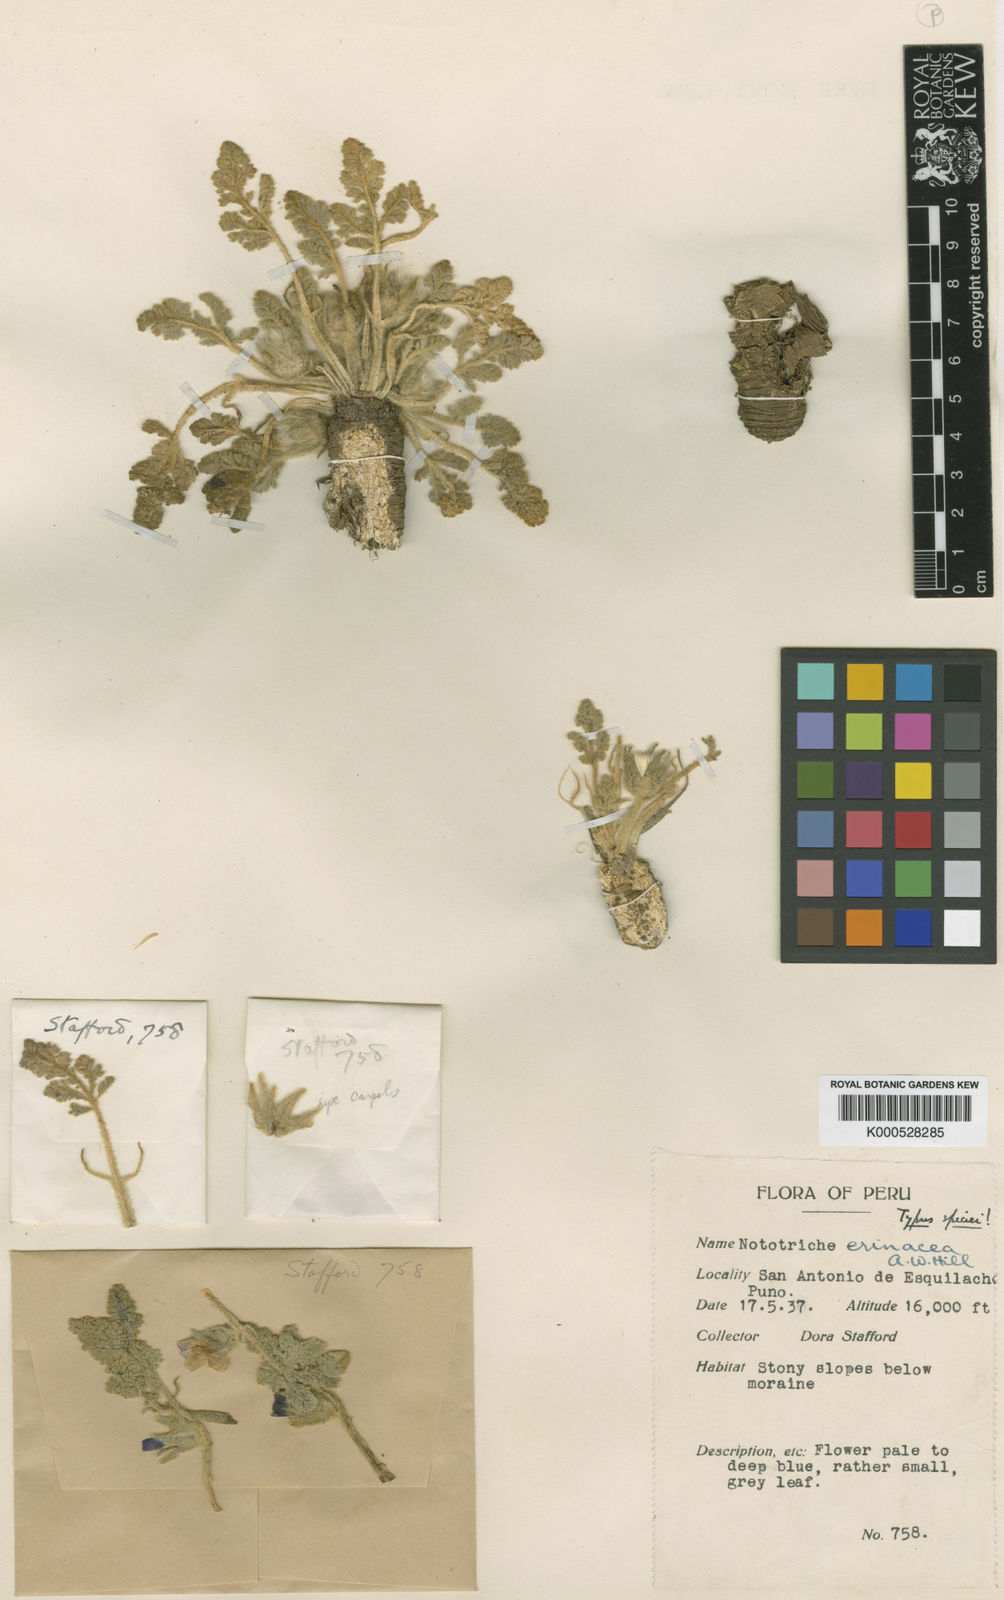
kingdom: Plantae
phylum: Tracheophyta
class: Magnoliopsida
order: Malvales
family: Malvaceae
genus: Nototriche
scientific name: Nototriche
